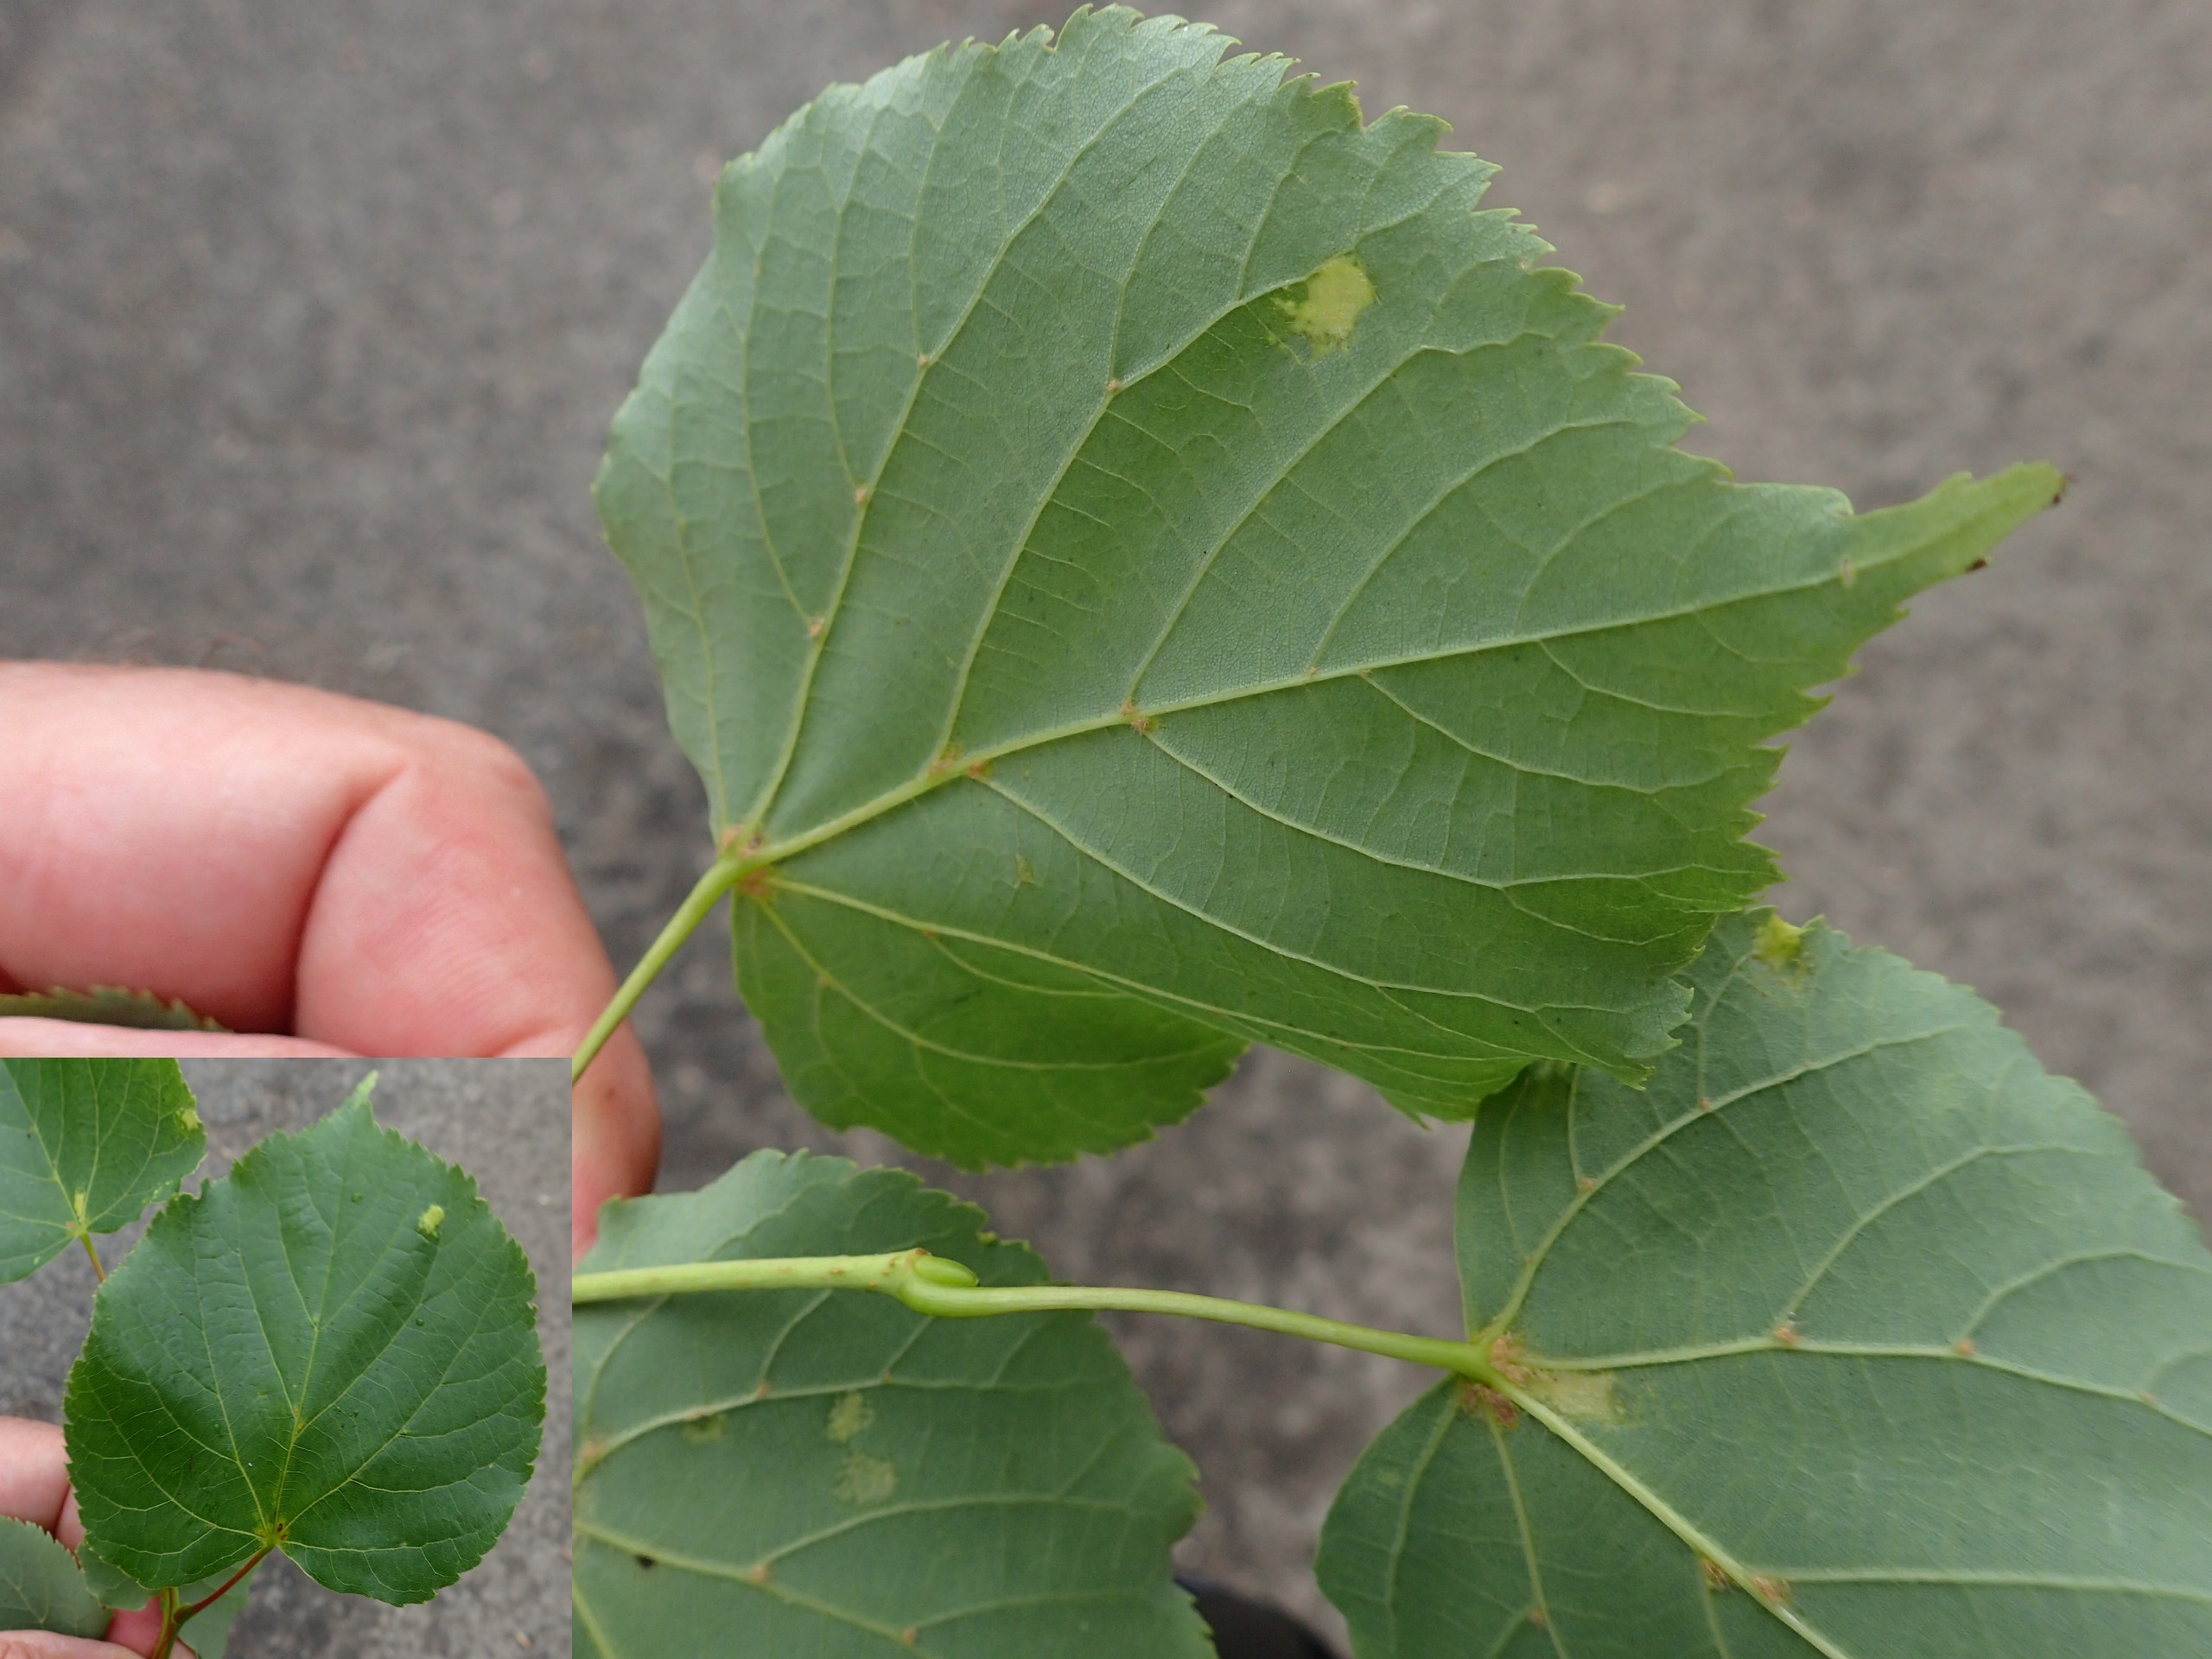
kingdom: Plantae
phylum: Tracheophyta
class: Magnoliopsida
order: Malvales
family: Malvaceae
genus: Tilia
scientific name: Tilia cordata
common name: Småbladet lind
